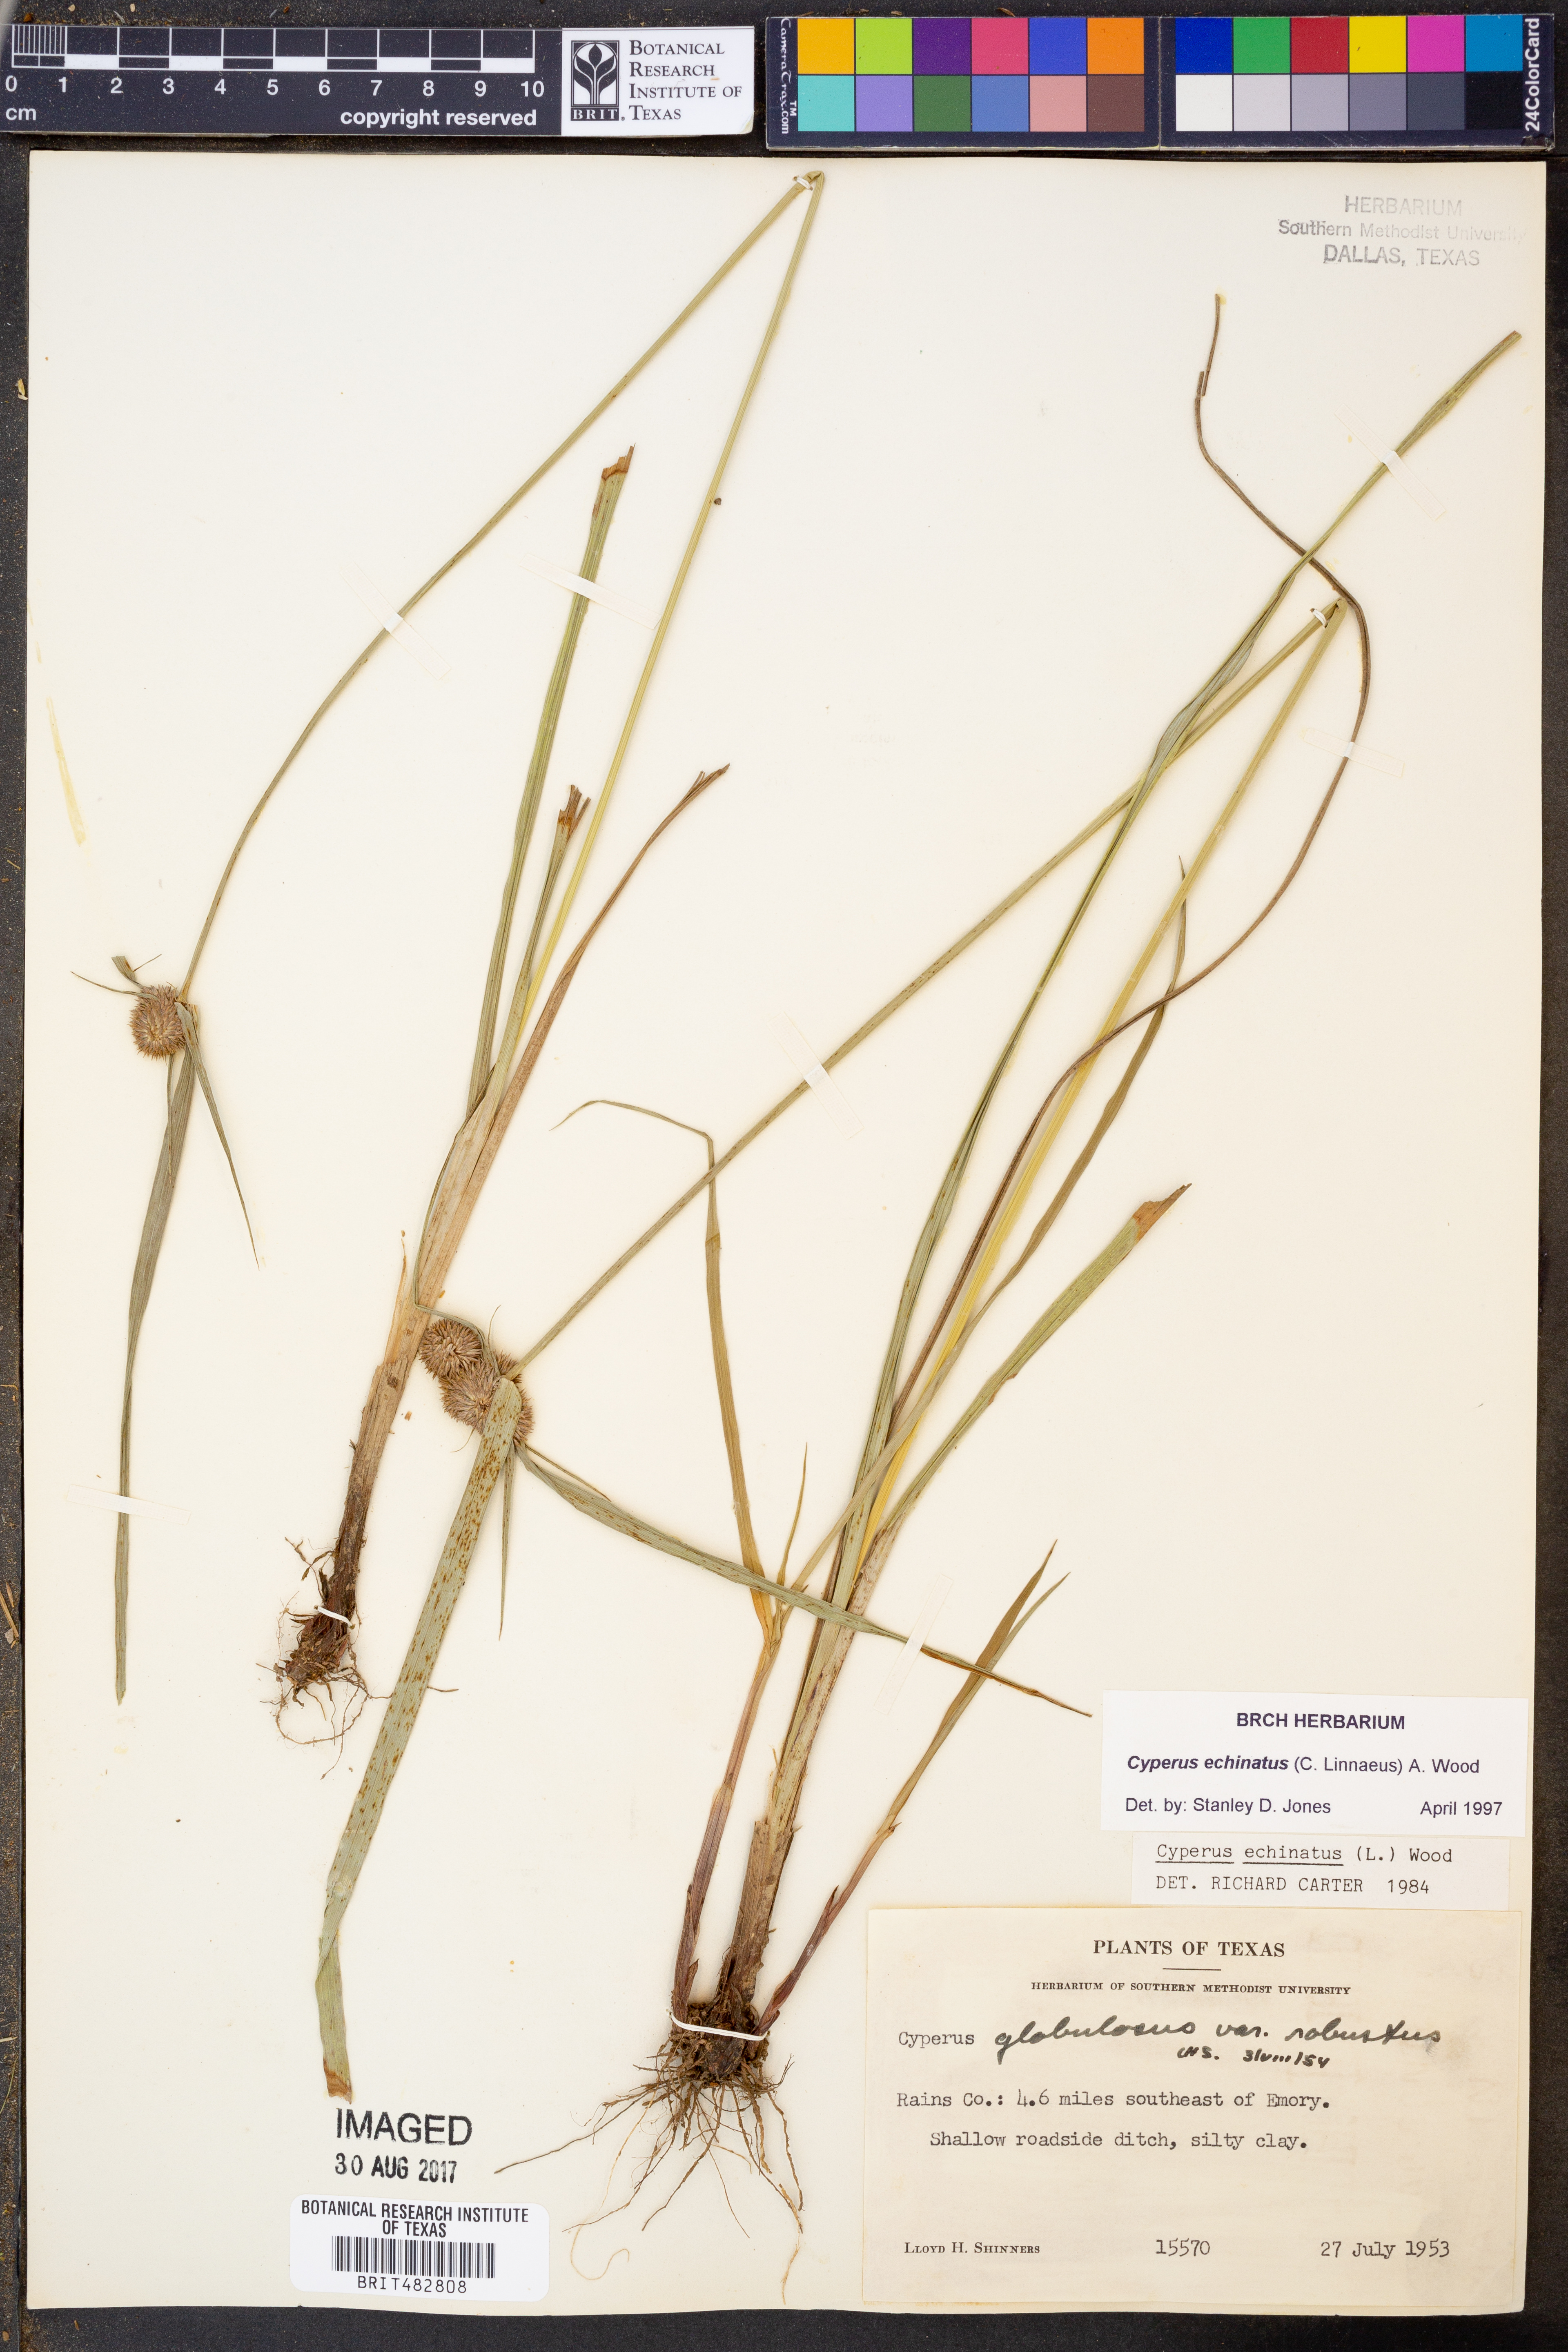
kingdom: Plantae
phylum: Tracheophyta
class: Liliopsida
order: Poales
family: Cyperaceae
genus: Cyperus
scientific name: Cyperus echinatus
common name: Teasel sedge
